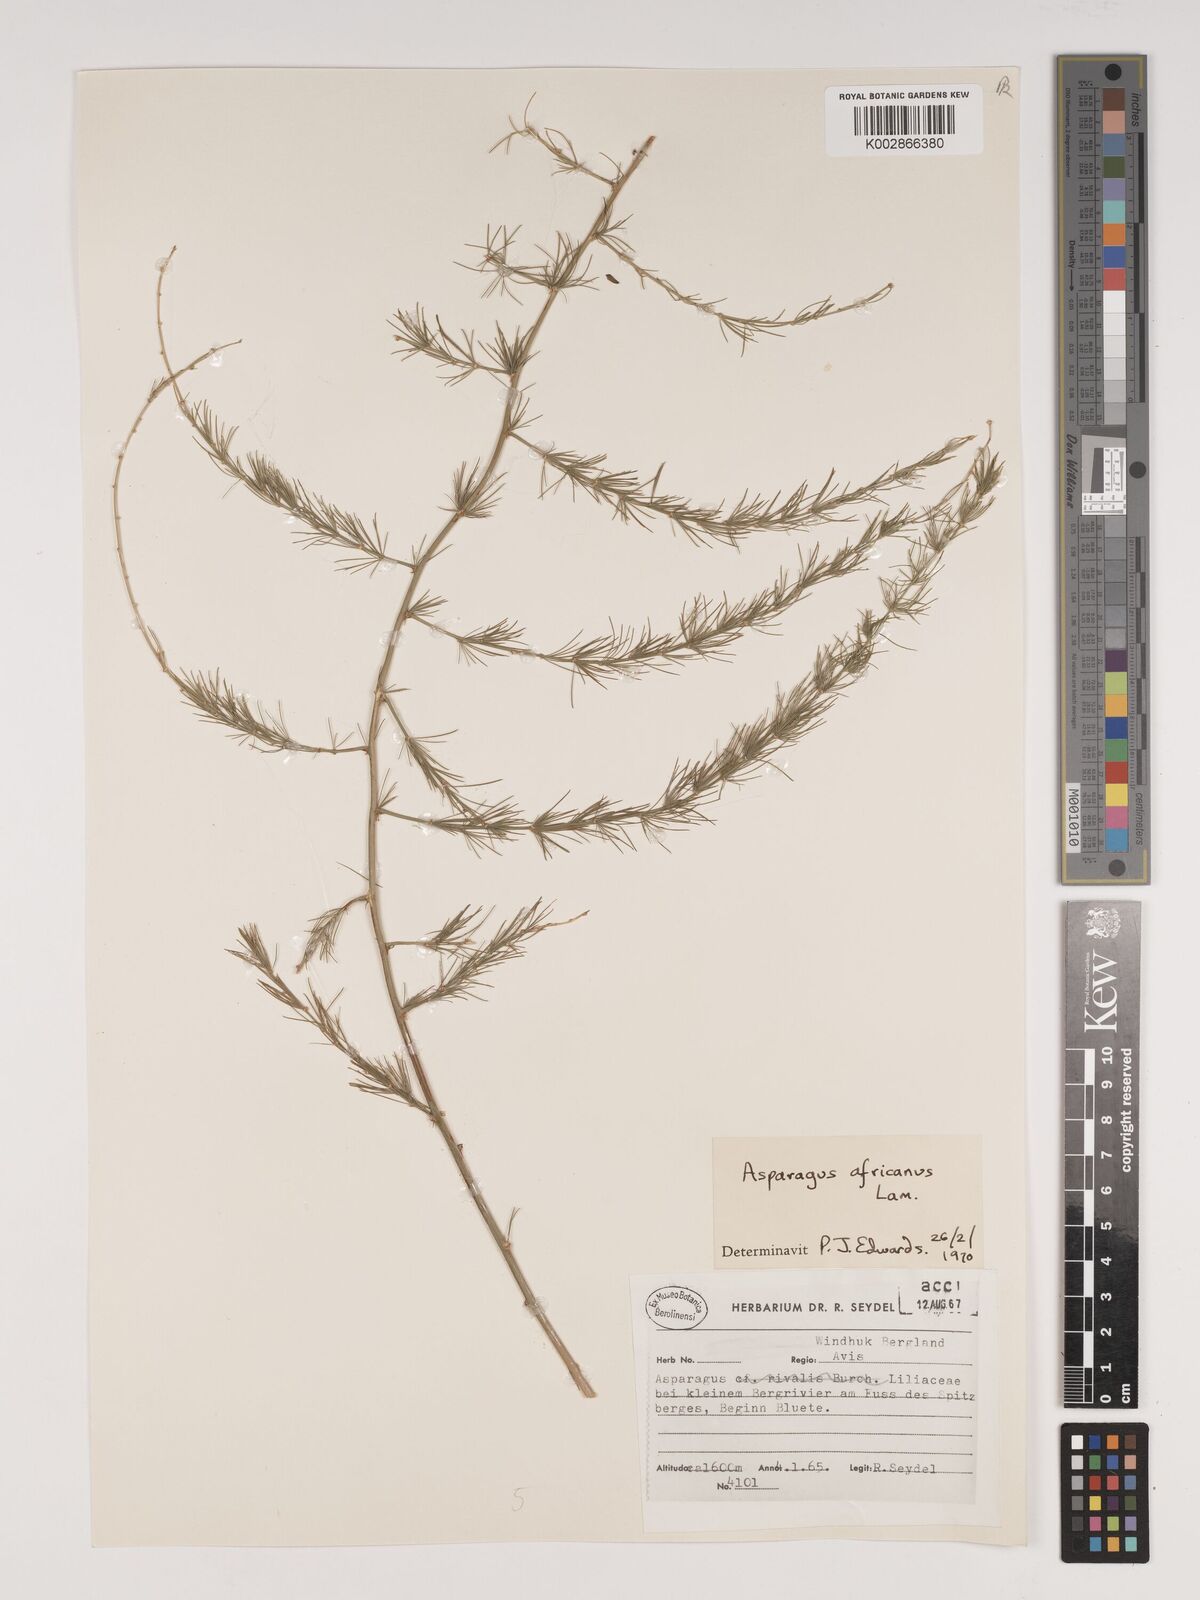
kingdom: Plantae
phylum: Tracheophyta
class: Liliopsida
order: Asparagales
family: Asparagaceae
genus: Asparagus
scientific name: Asparagus africanus
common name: Asparagus-fern
